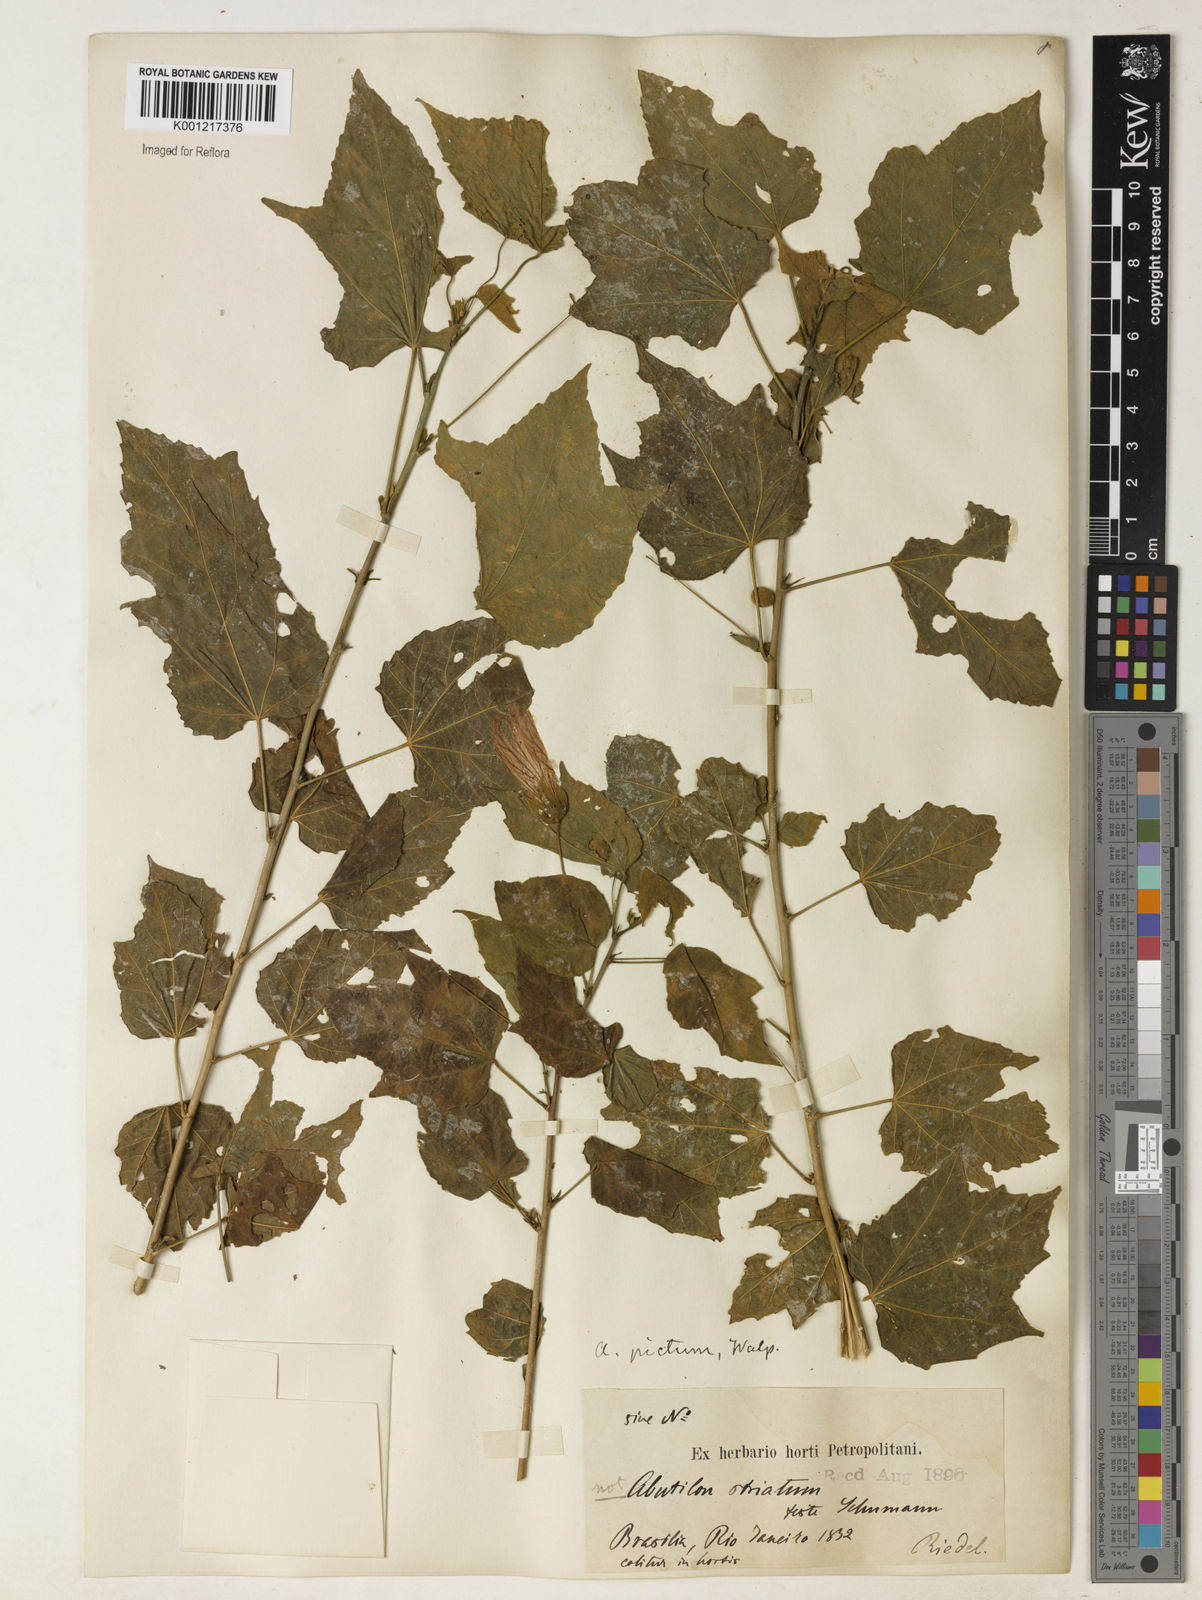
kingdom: Plantae
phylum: Tracheophyta
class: Magnoliopsida
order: Malvales
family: Malvaceae
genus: Callianthe
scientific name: Callianthe picta
